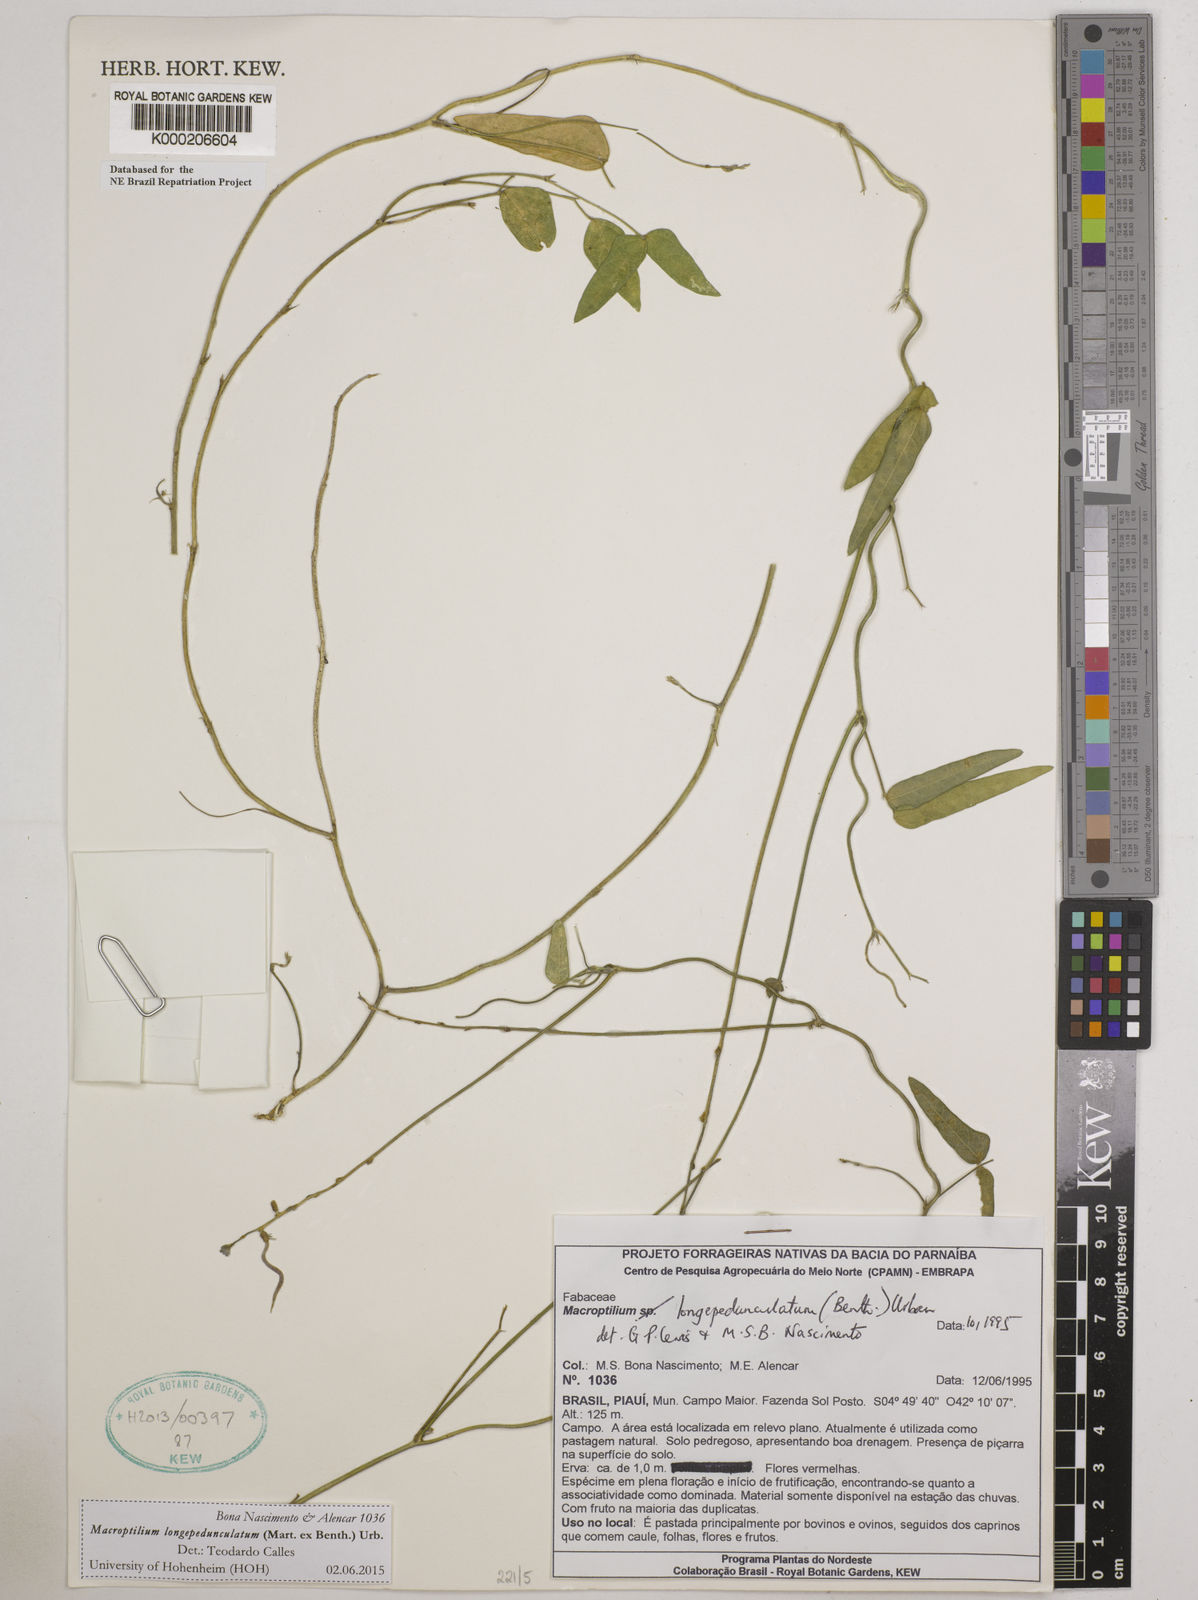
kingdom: Plantae
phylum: Tracheophyta
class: Magnoliopsida
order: Fabales
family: Fabaceae
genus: Macroptilium
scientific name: Macroptilium gracile
